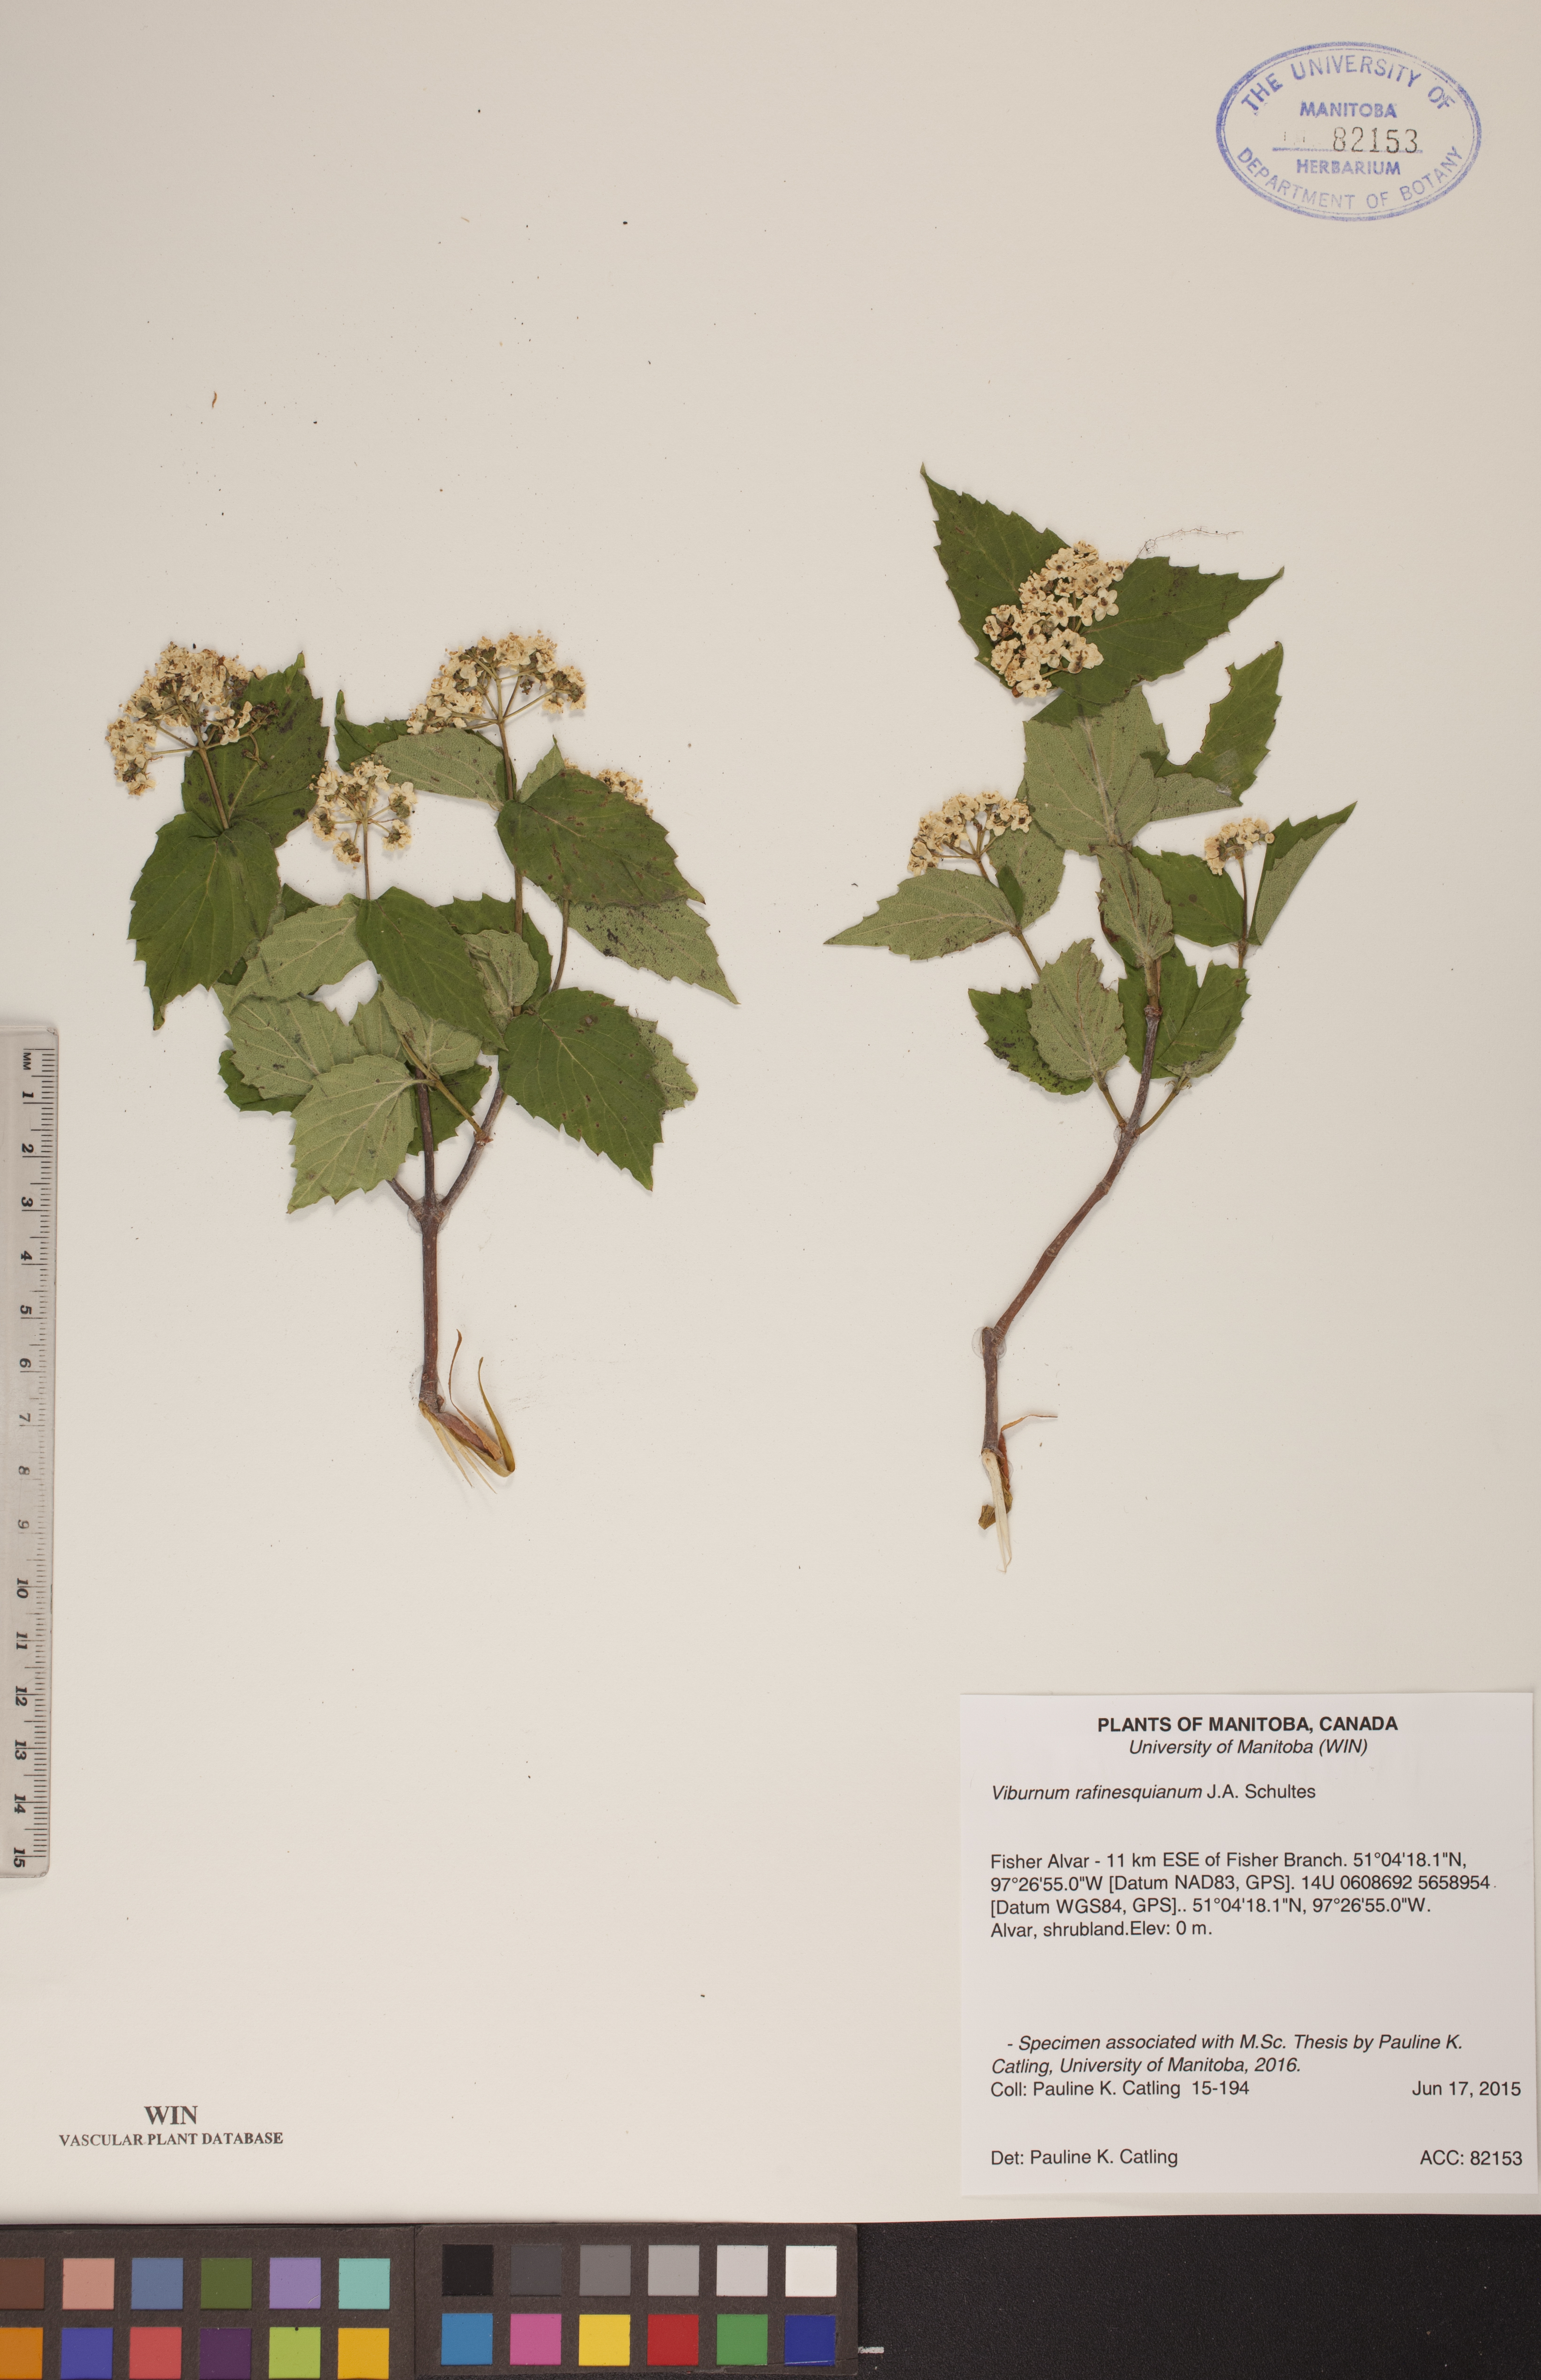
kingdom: Plantae
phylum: Tracheophyta
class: Magnoliopsida
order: Dipsacales
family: Viburnaceae
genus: Viburnum
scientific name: Viburnum rafinesquianum
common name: Downy arrow-wood
